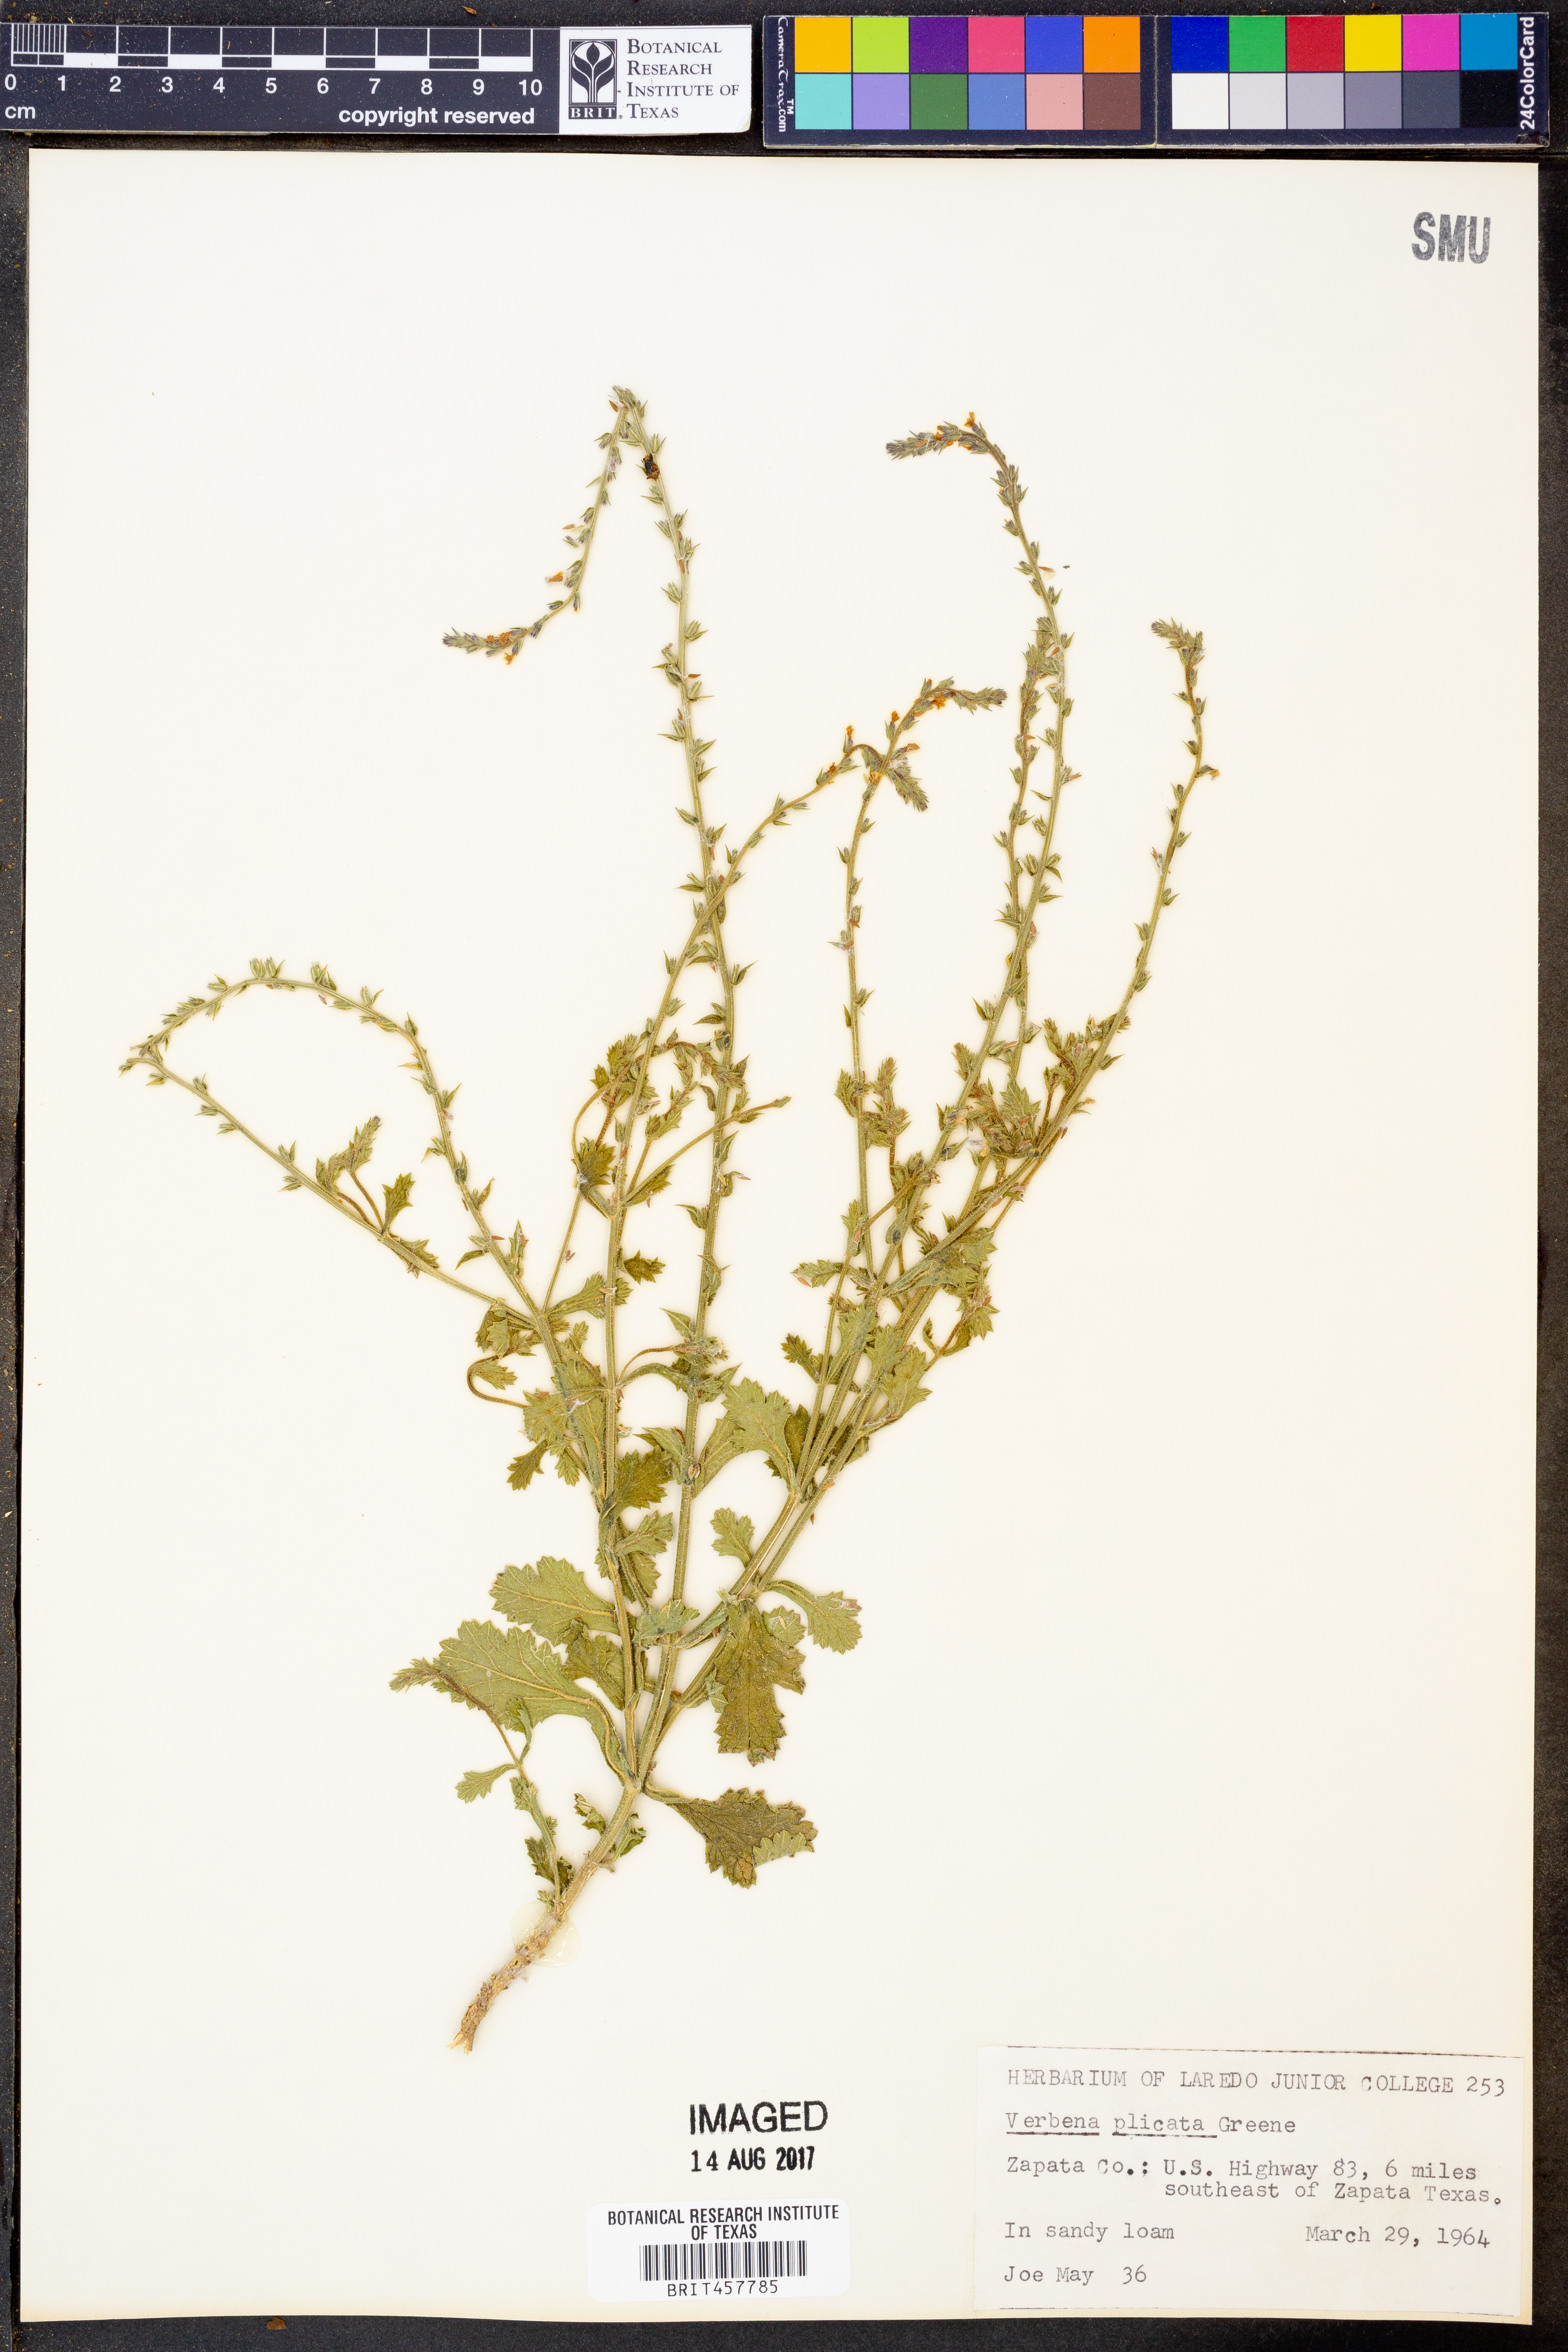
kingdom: Plantae
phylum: Tracheophyta
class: Magnoliopsida
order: Lamiales
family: Verbenaceae
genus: Verbena
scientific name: Verbena plicata
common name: Fan-leaf vervain
